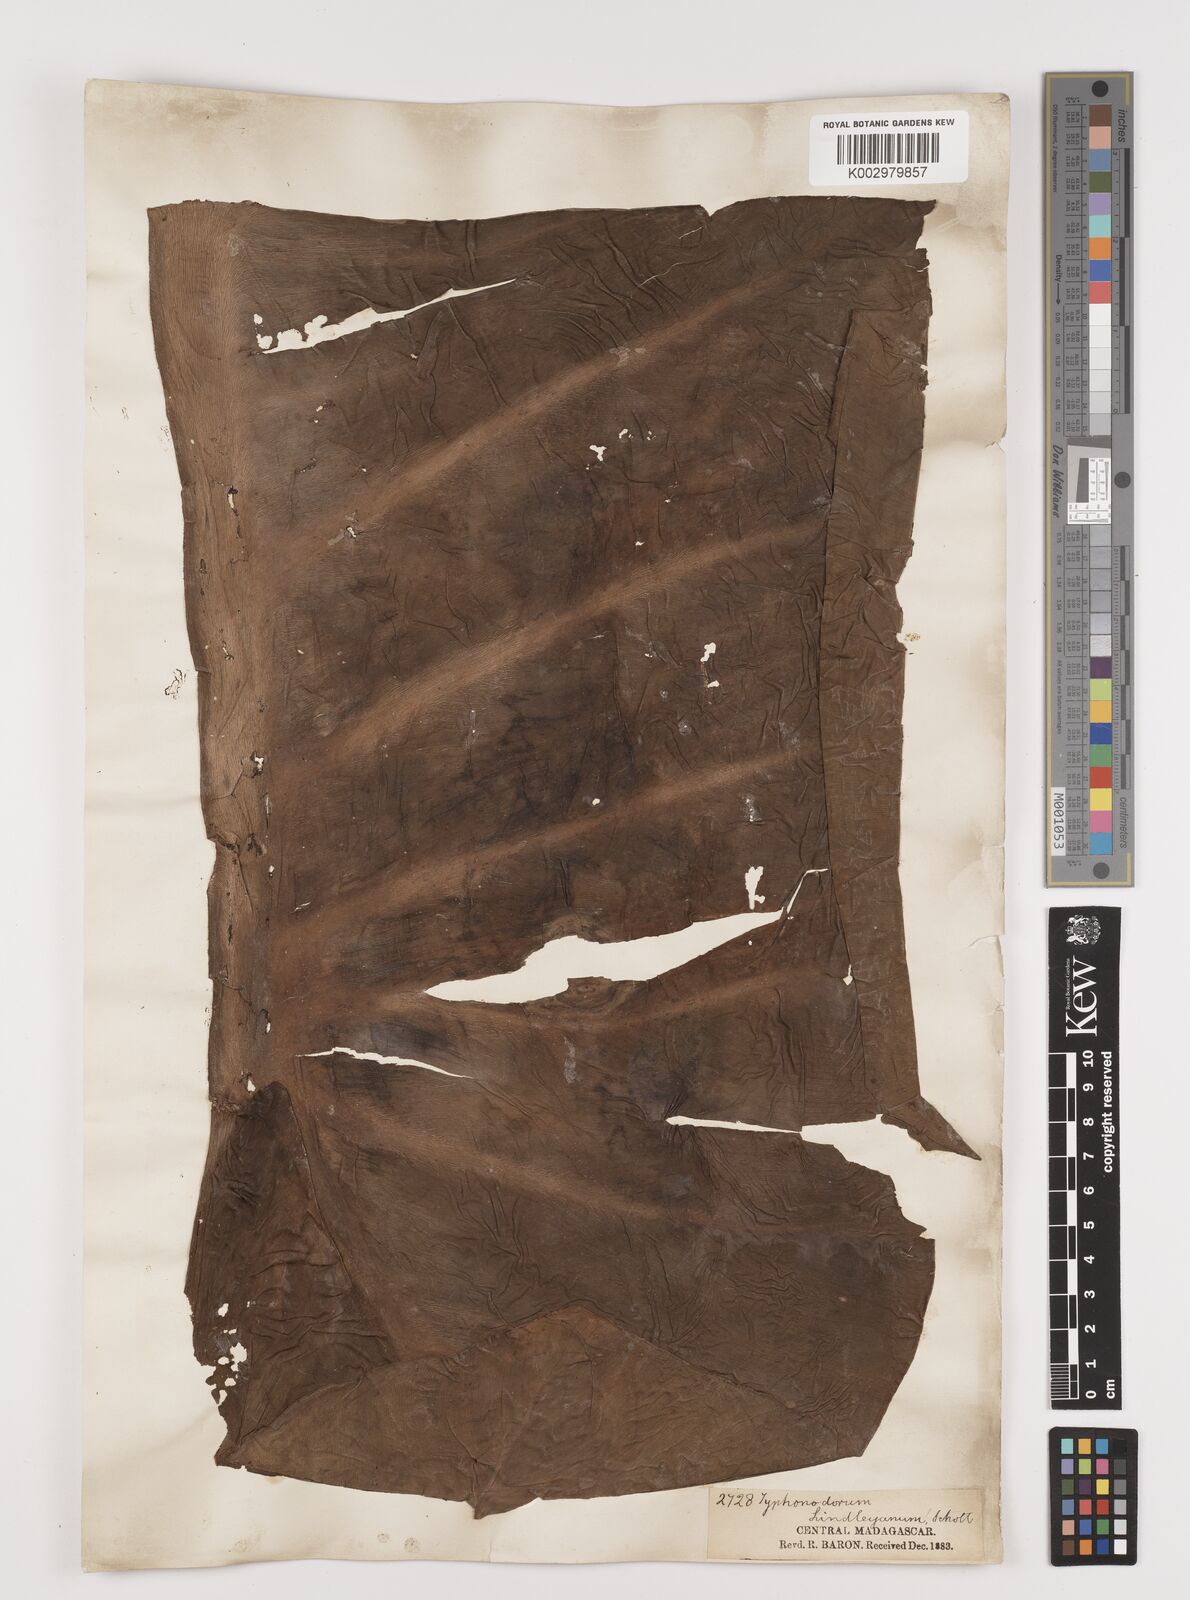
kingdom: Plantae
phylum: Tracheophyta
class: Liliopsida
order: Alismatales
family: Araceae
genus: Typhonodorum
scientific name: Typhonodorum lindleyanum
